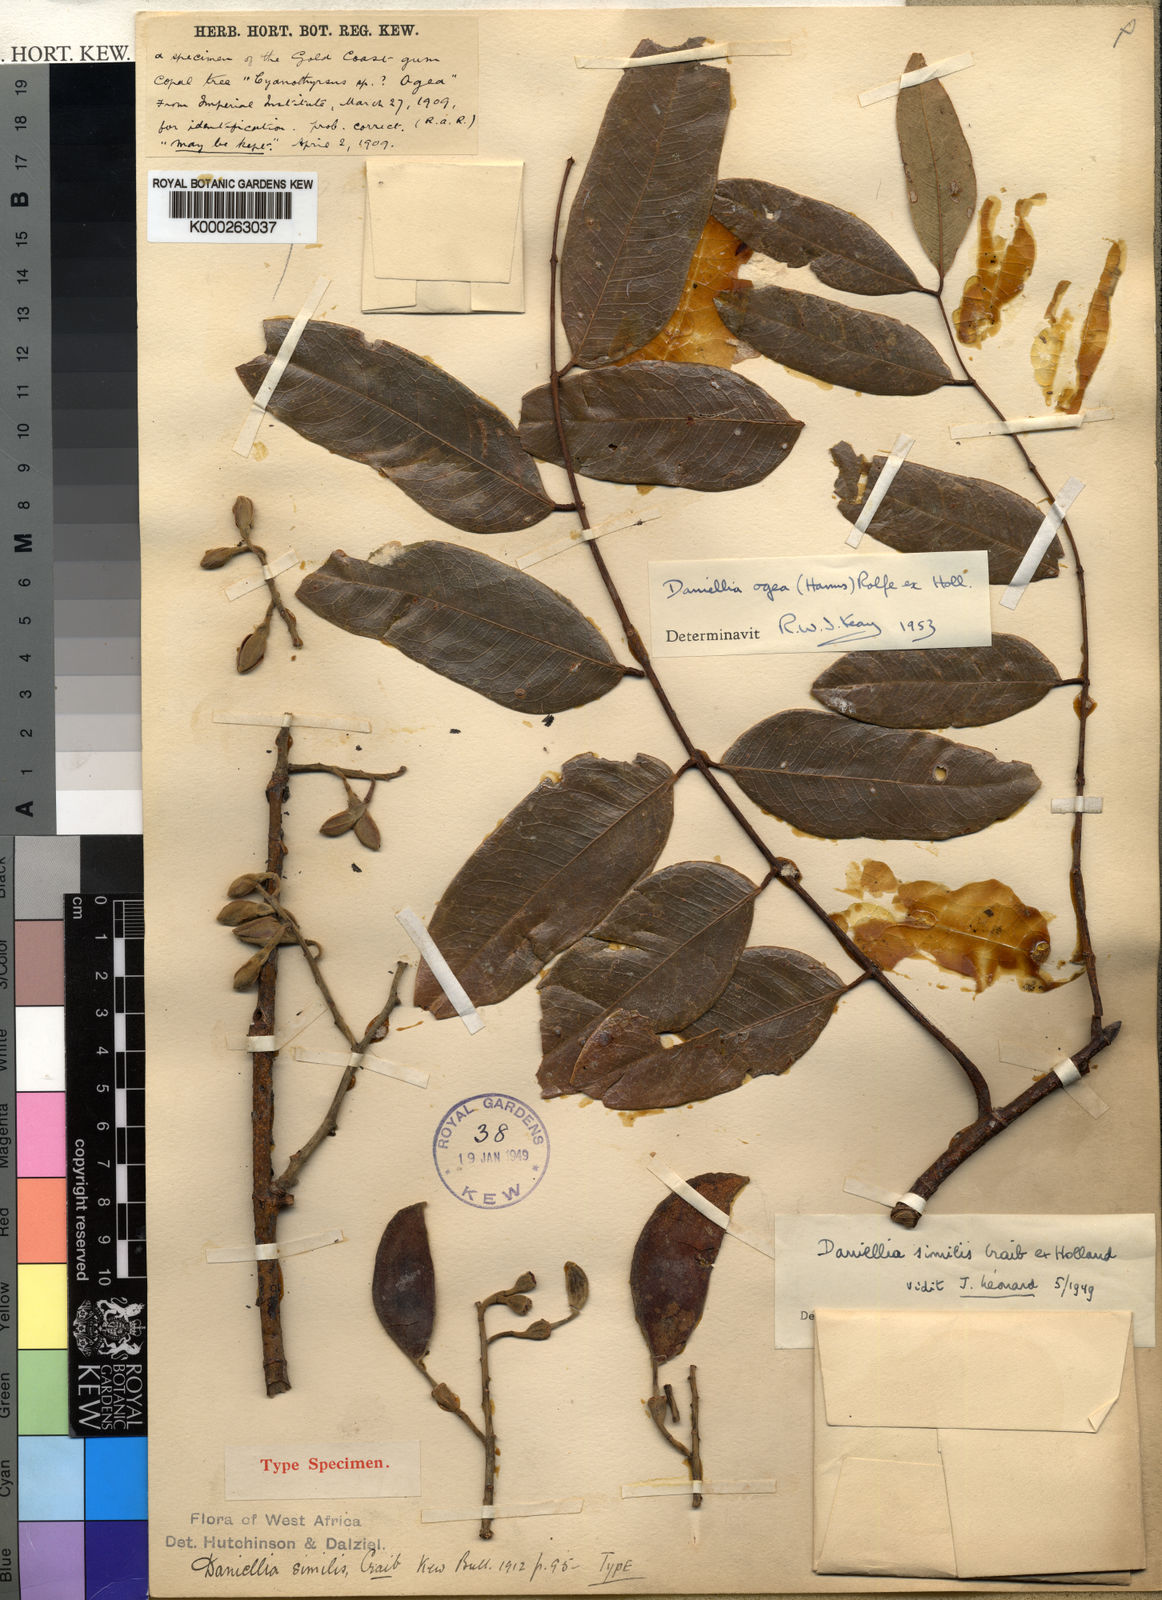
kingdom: Plantae
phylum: Tracheophyta
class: Magnoliopsida
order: Fabales
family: Fabaceae
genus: Daniellia
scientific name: Daniellia ogea
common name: Accra copal
